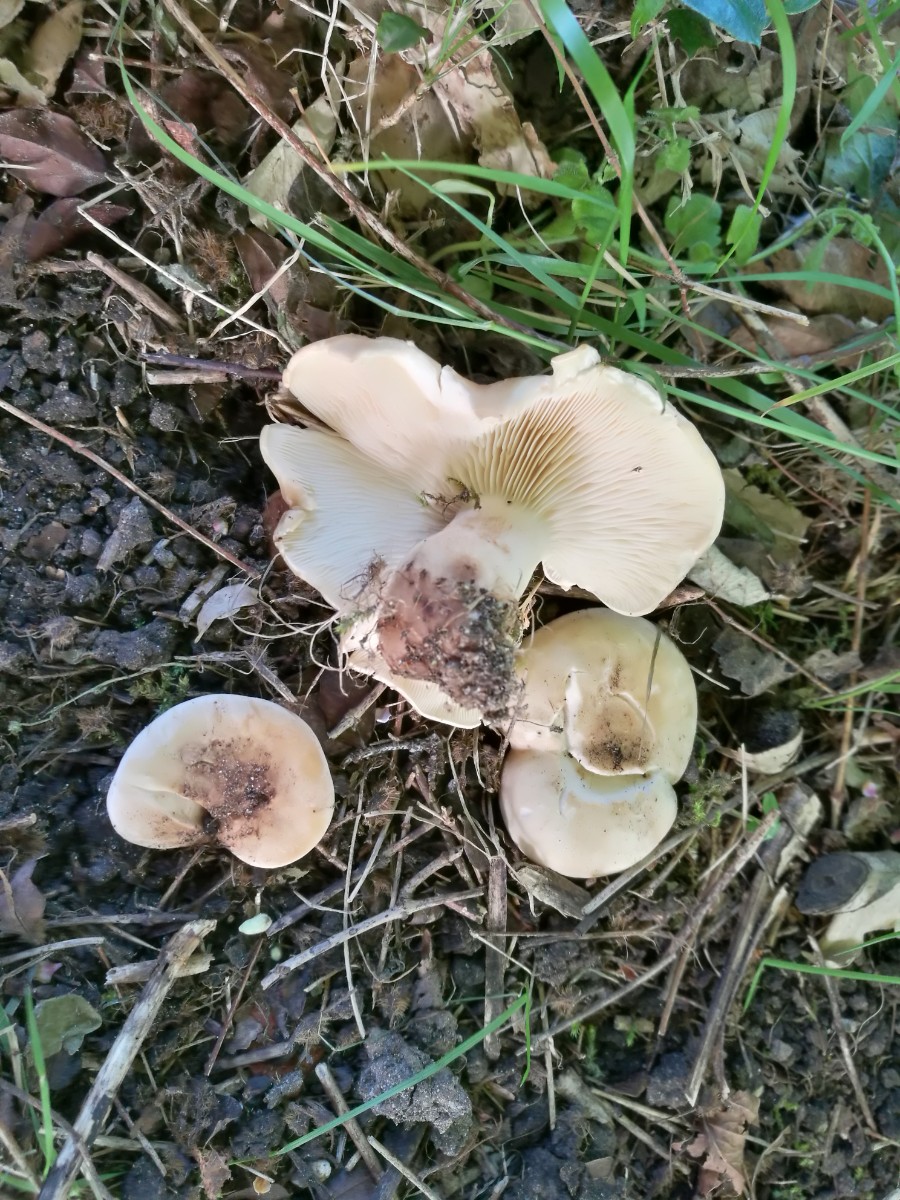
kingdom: Fungi
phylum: Basidiomycota
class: Agaricomycetes
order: Agaricales
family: Lyophyllaceae
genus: Calocybe
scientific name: Calocybe gambosa
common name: vårmusseron
